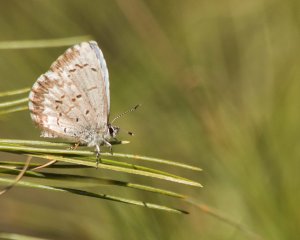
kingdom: Animalia
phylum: Arthropoda
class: Insecta
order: Lepidoptera
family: Lycaenidae
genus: Celastrina
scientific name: Celastrina lucia
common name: Northern Spring Azure
